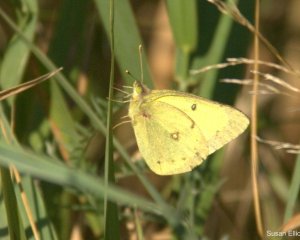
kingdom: Animalia
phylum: Arthropoda
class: Insecta
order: Lepidoptera
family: Pieridae
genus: Colias
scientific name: Colias philodice
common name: Clouded Sulphur
